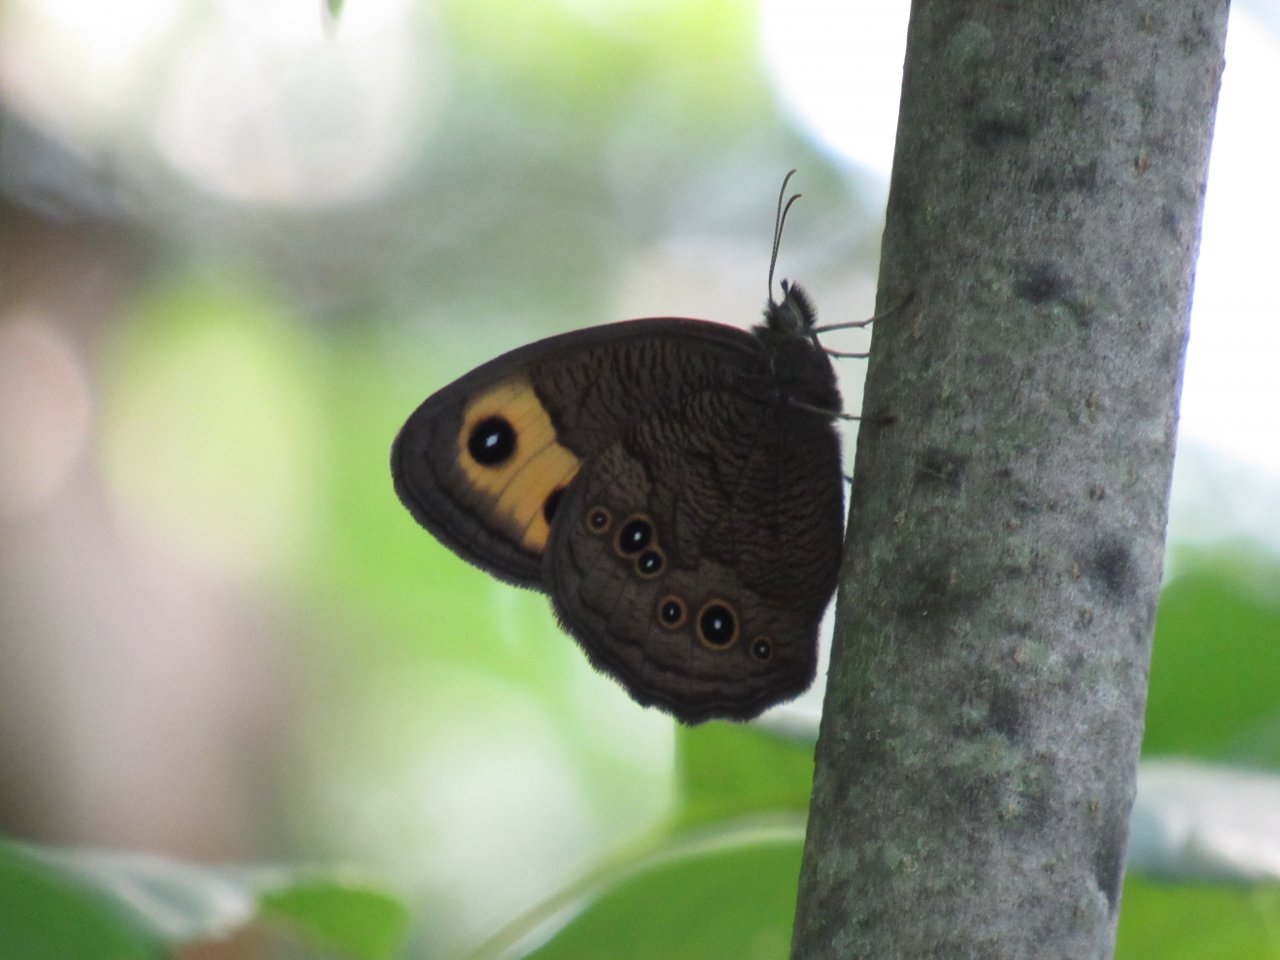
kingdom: Animalia
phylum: Arthropoda
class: Insecta
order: Lepidoptera
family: Nymphalidae
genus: Cercyonis
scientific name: Cercyonis pegala
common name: Common Wood-Nymph
